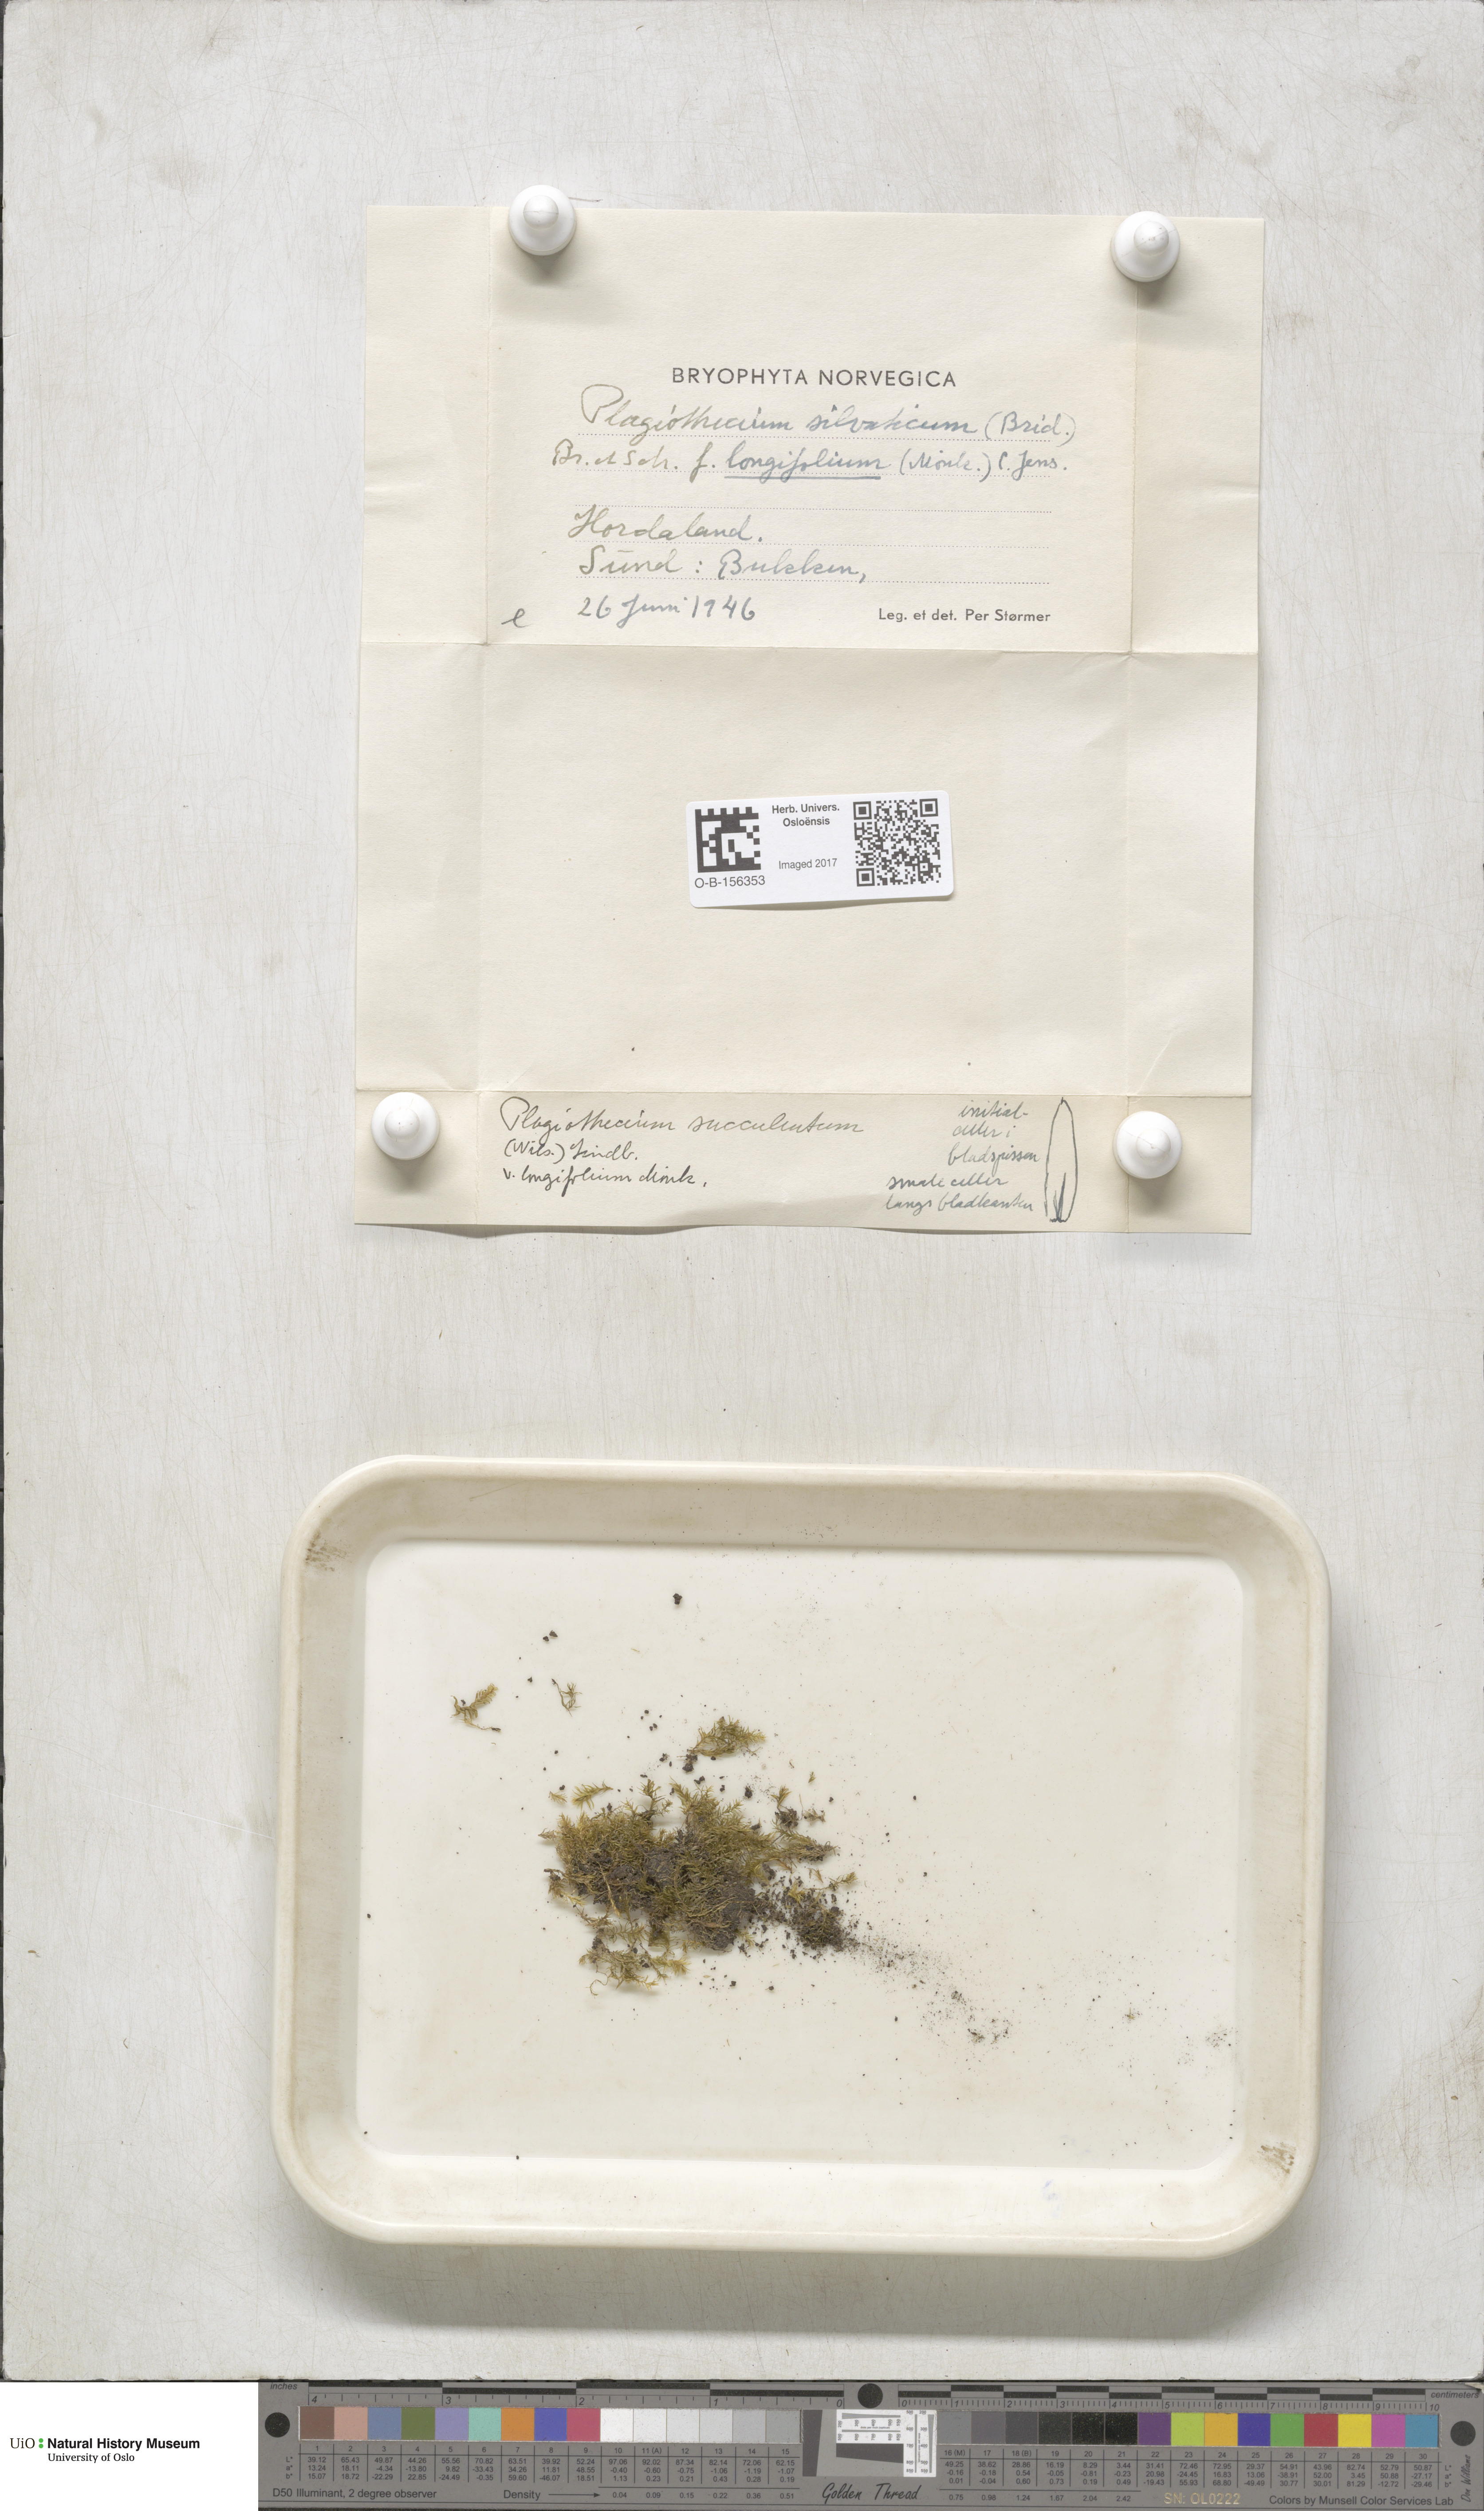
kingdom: Plantae
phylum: Bryophyta
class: Bryopsida
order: Hypnales
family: Plagiotheciaceae
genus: Plagiothecium
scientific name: Plagiothecium nemorale
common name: Woodsy silk-moss
